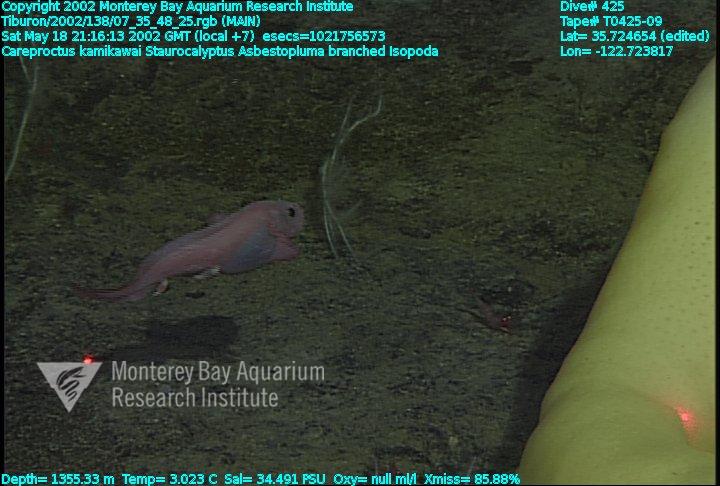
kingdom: Animalia
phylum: Porifera
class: Hexactinellida
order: Lyssacinosida
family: Rossellidae
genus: Staurocalyptus
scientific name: Staurocalyptus
